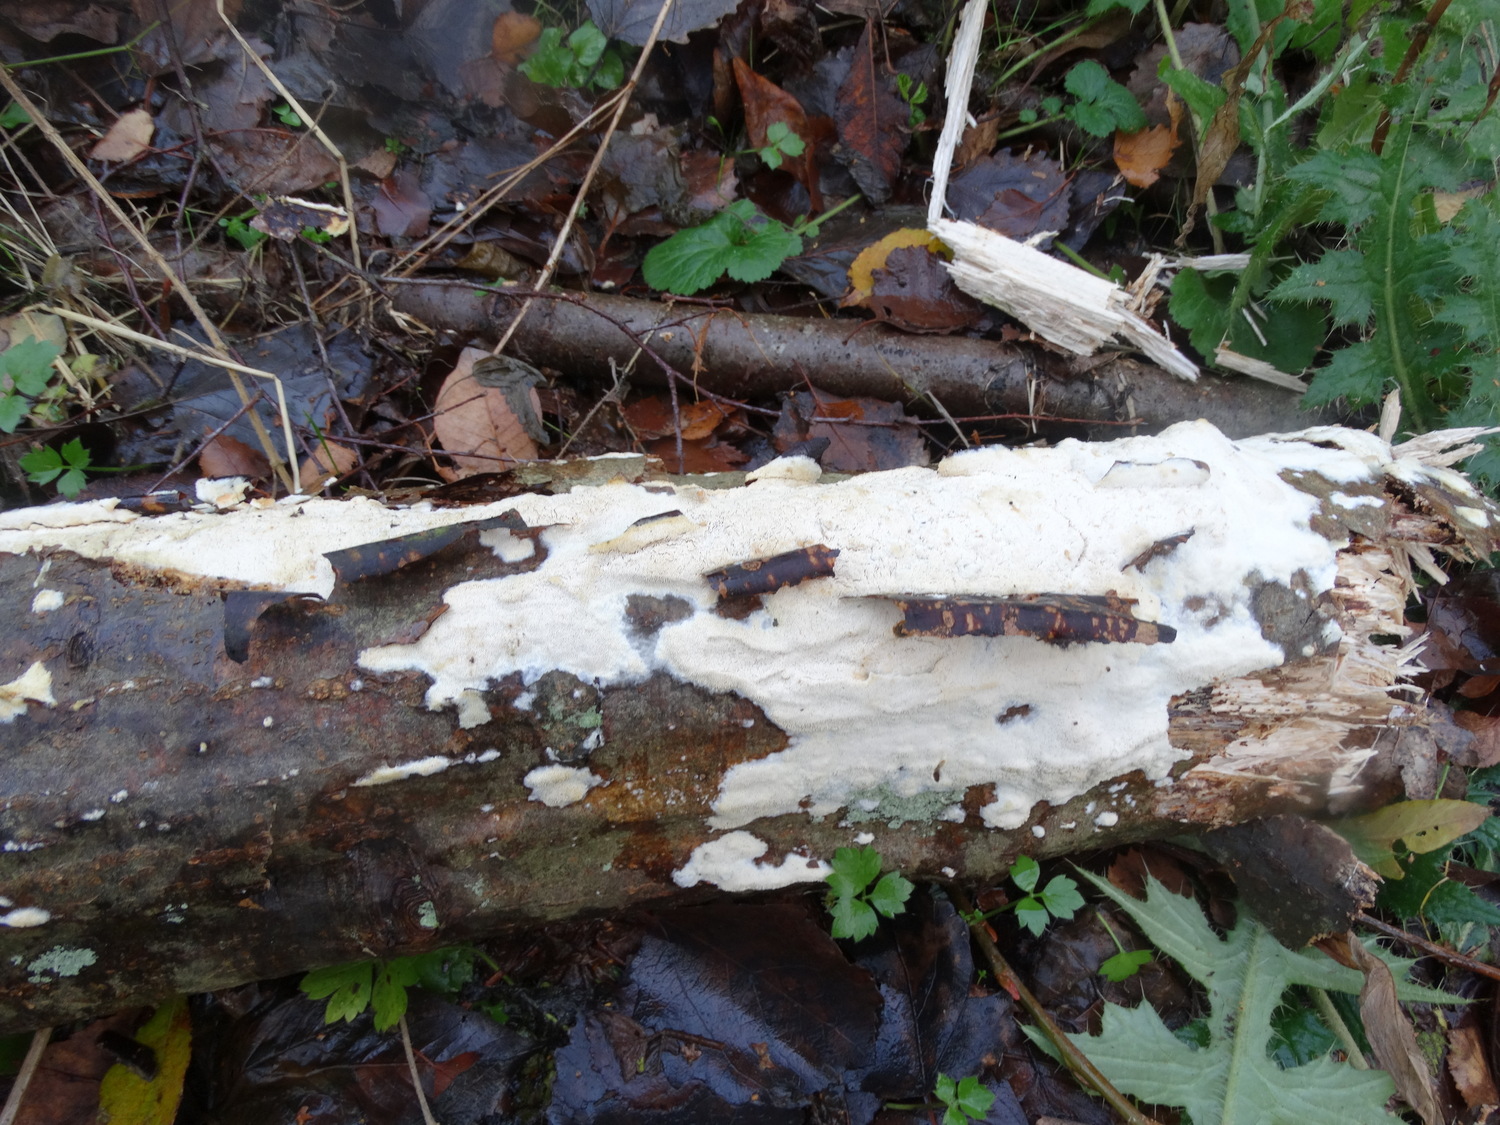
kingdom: Fungi
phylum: Basidiomycota
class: Agaricomycetes
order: Hymenochaetales
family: Schizoporaceae
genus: Xylodon
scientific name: Xylodon subtropicus
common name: labyrint-tandsvamp
